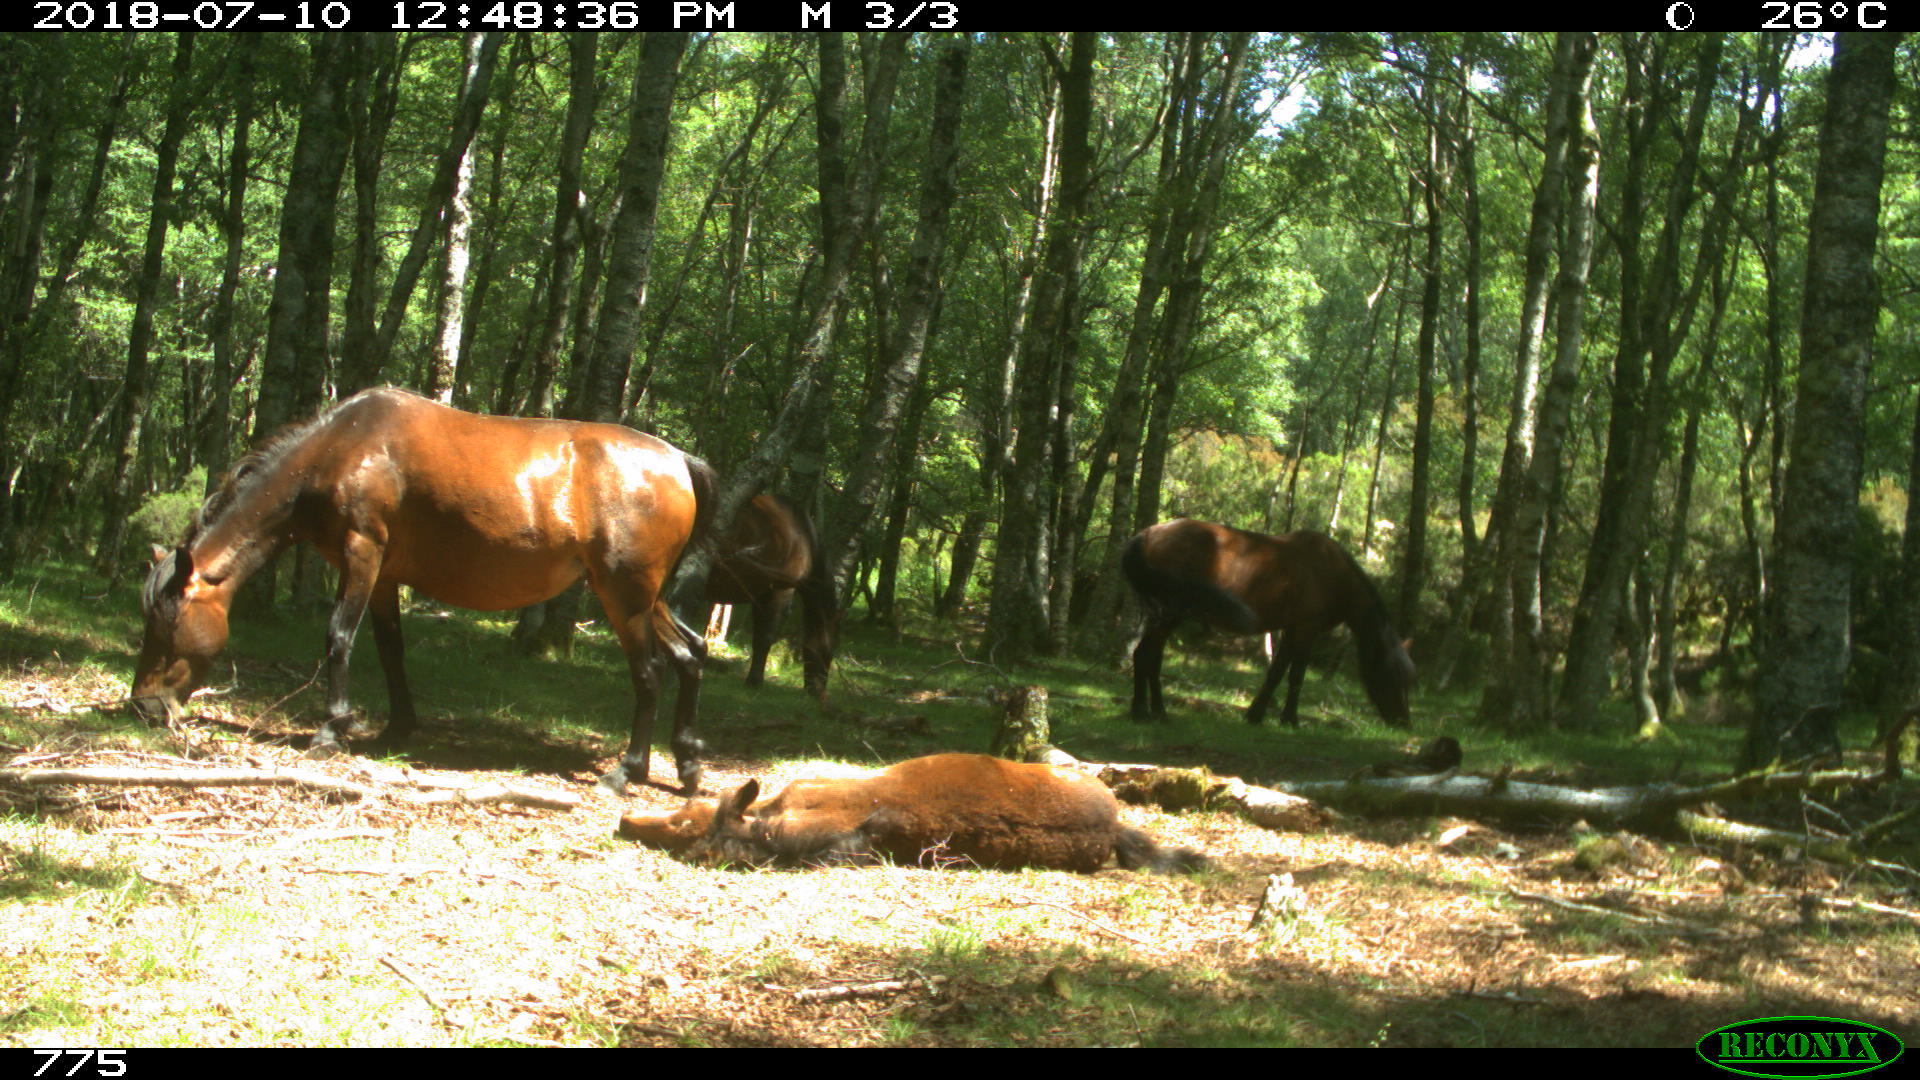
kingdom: Animalia
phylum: Chordata
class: Mammalia
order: Perissodactyla
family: Equidae
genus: Equus
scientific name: Equus caballus
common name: Horse
